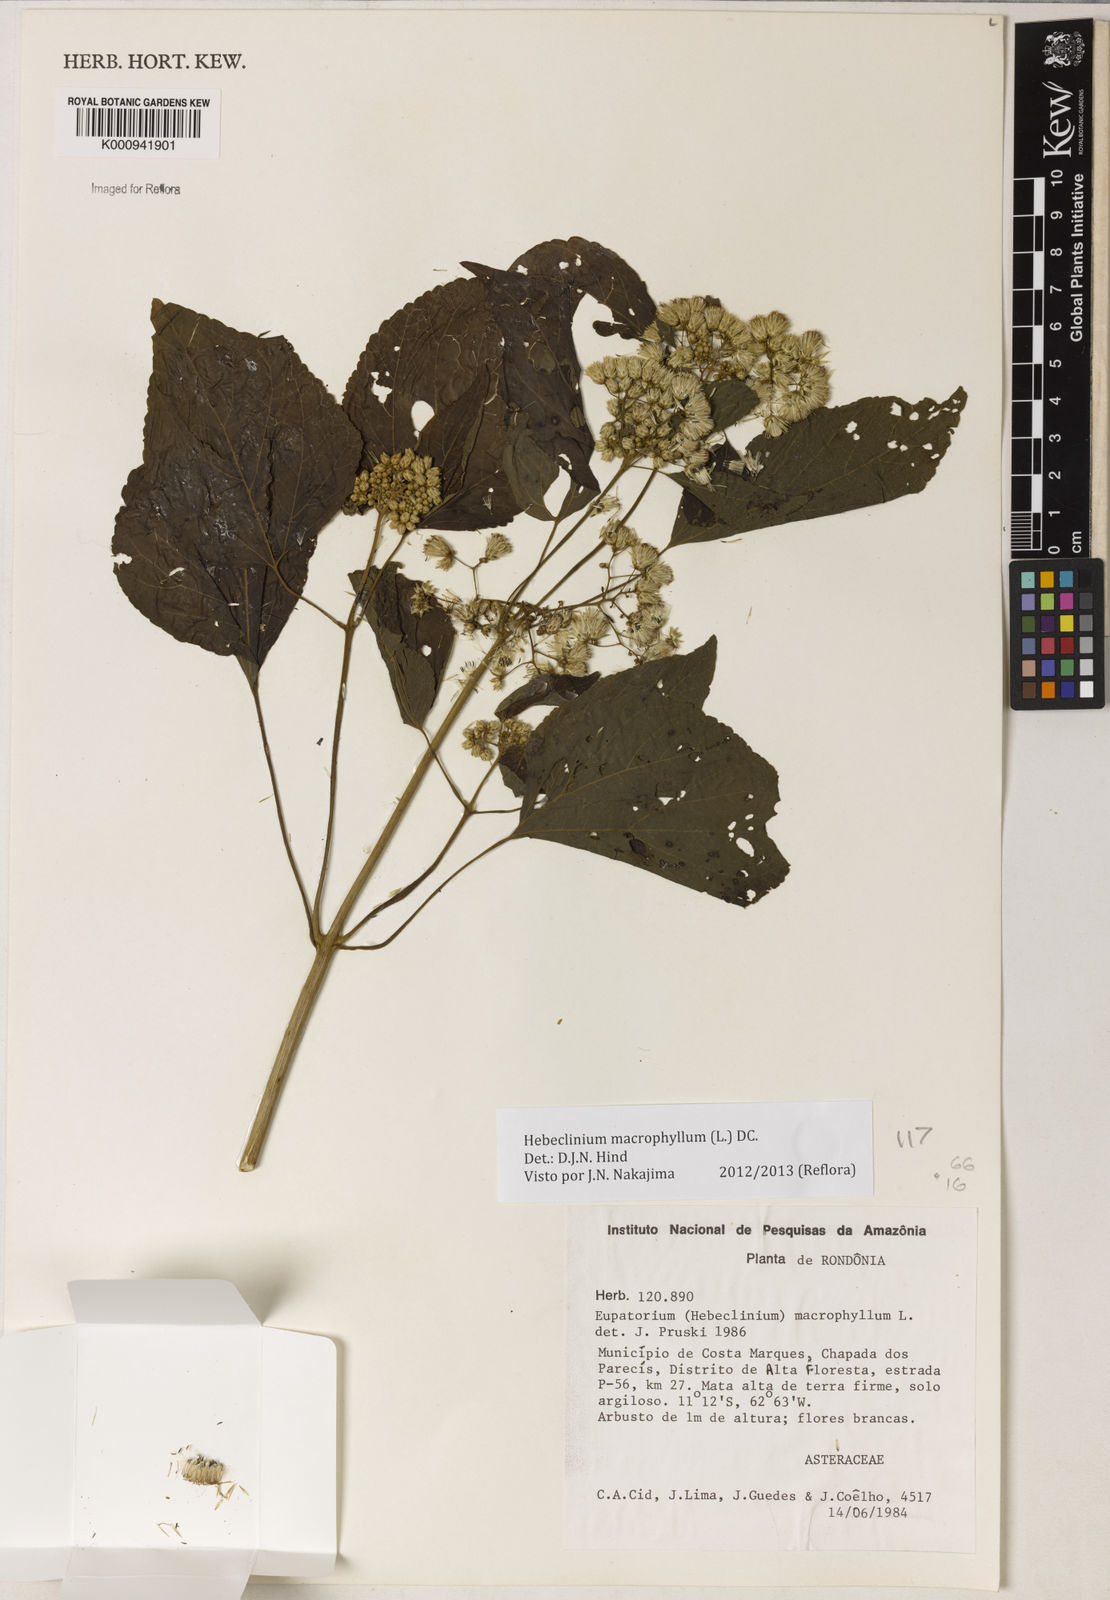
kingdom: Plantae
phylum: Tracheophyta
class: Magnoliopsida
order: Asterales
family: Asteraceae
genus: Hebeclinium
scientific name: Hebeclinium macrophyllum
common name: Largeleaf thoroughwort
